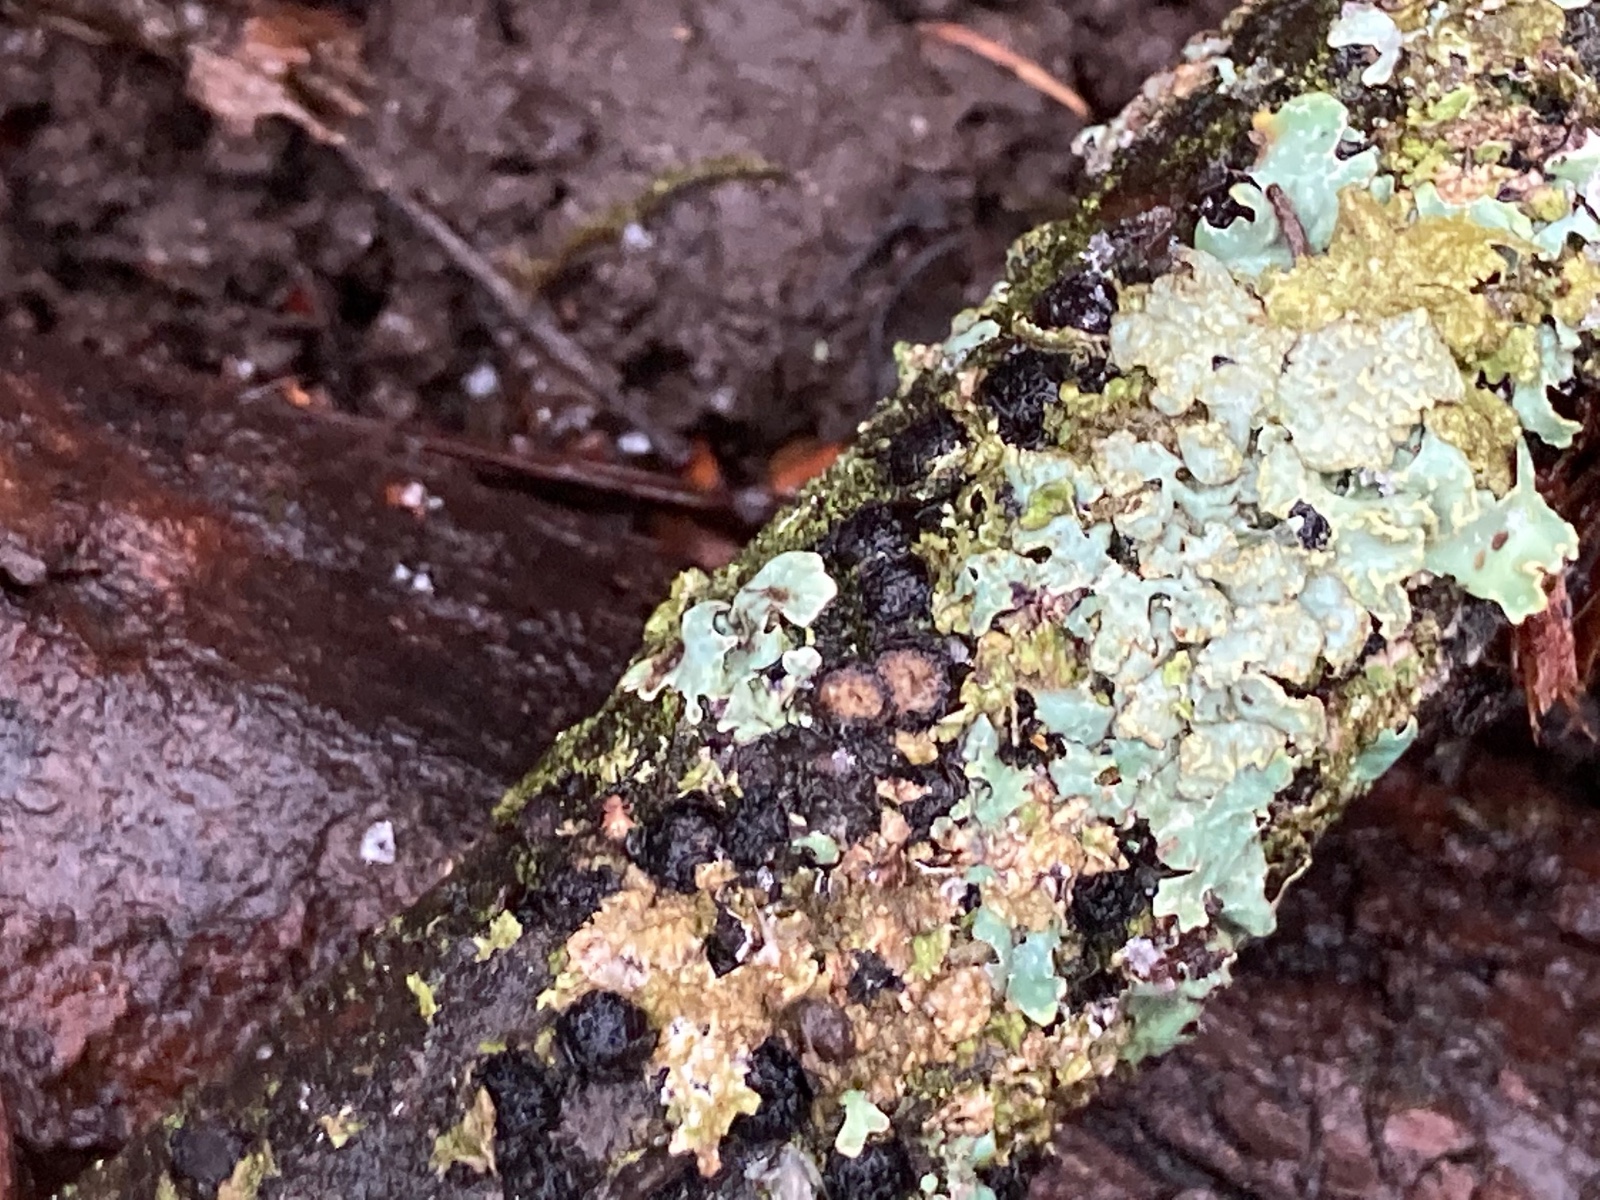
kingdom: Fungi
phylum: Ascomycota
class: Sordariomycetes
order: Xylariales
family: Diatrypaceae
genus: Diatrypella
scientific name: Diatrypella quercina
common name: ege-kulskorpe
